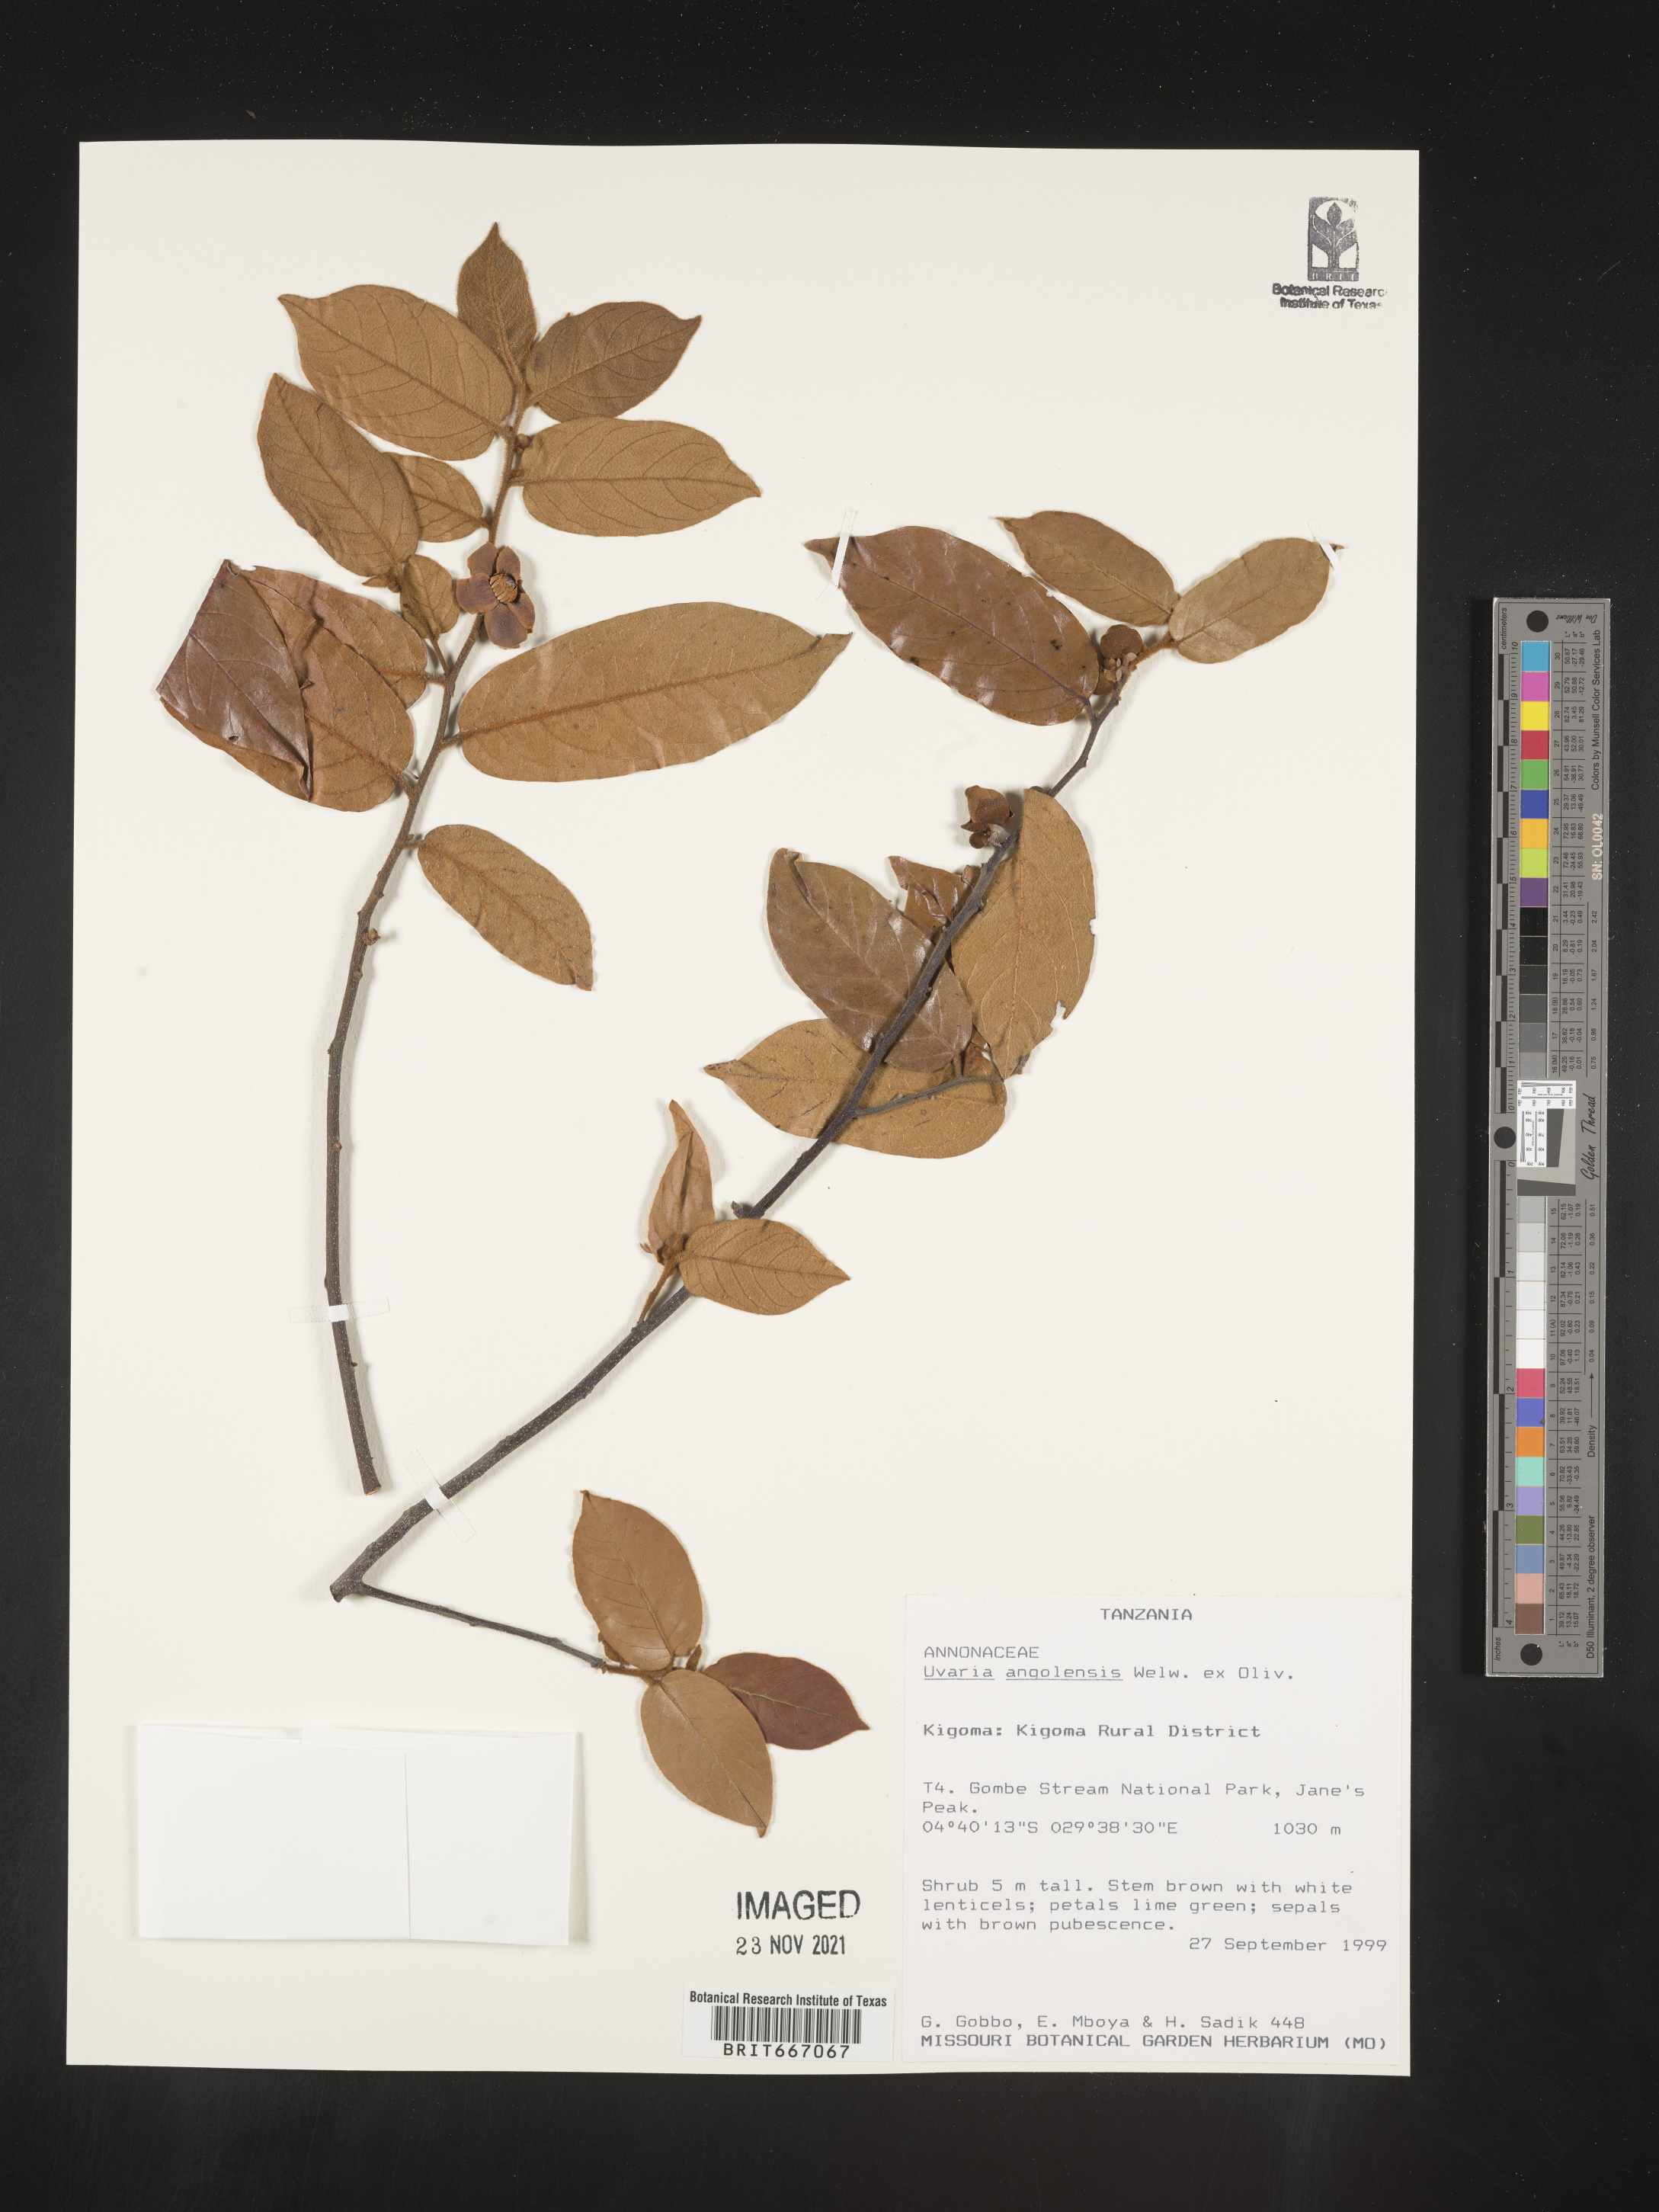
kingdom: Plantae
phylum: Tracheophyta
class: Magnoliopsida
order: Magnoliales
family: Annonaceae
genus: Uvaria
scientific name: Uvaria
